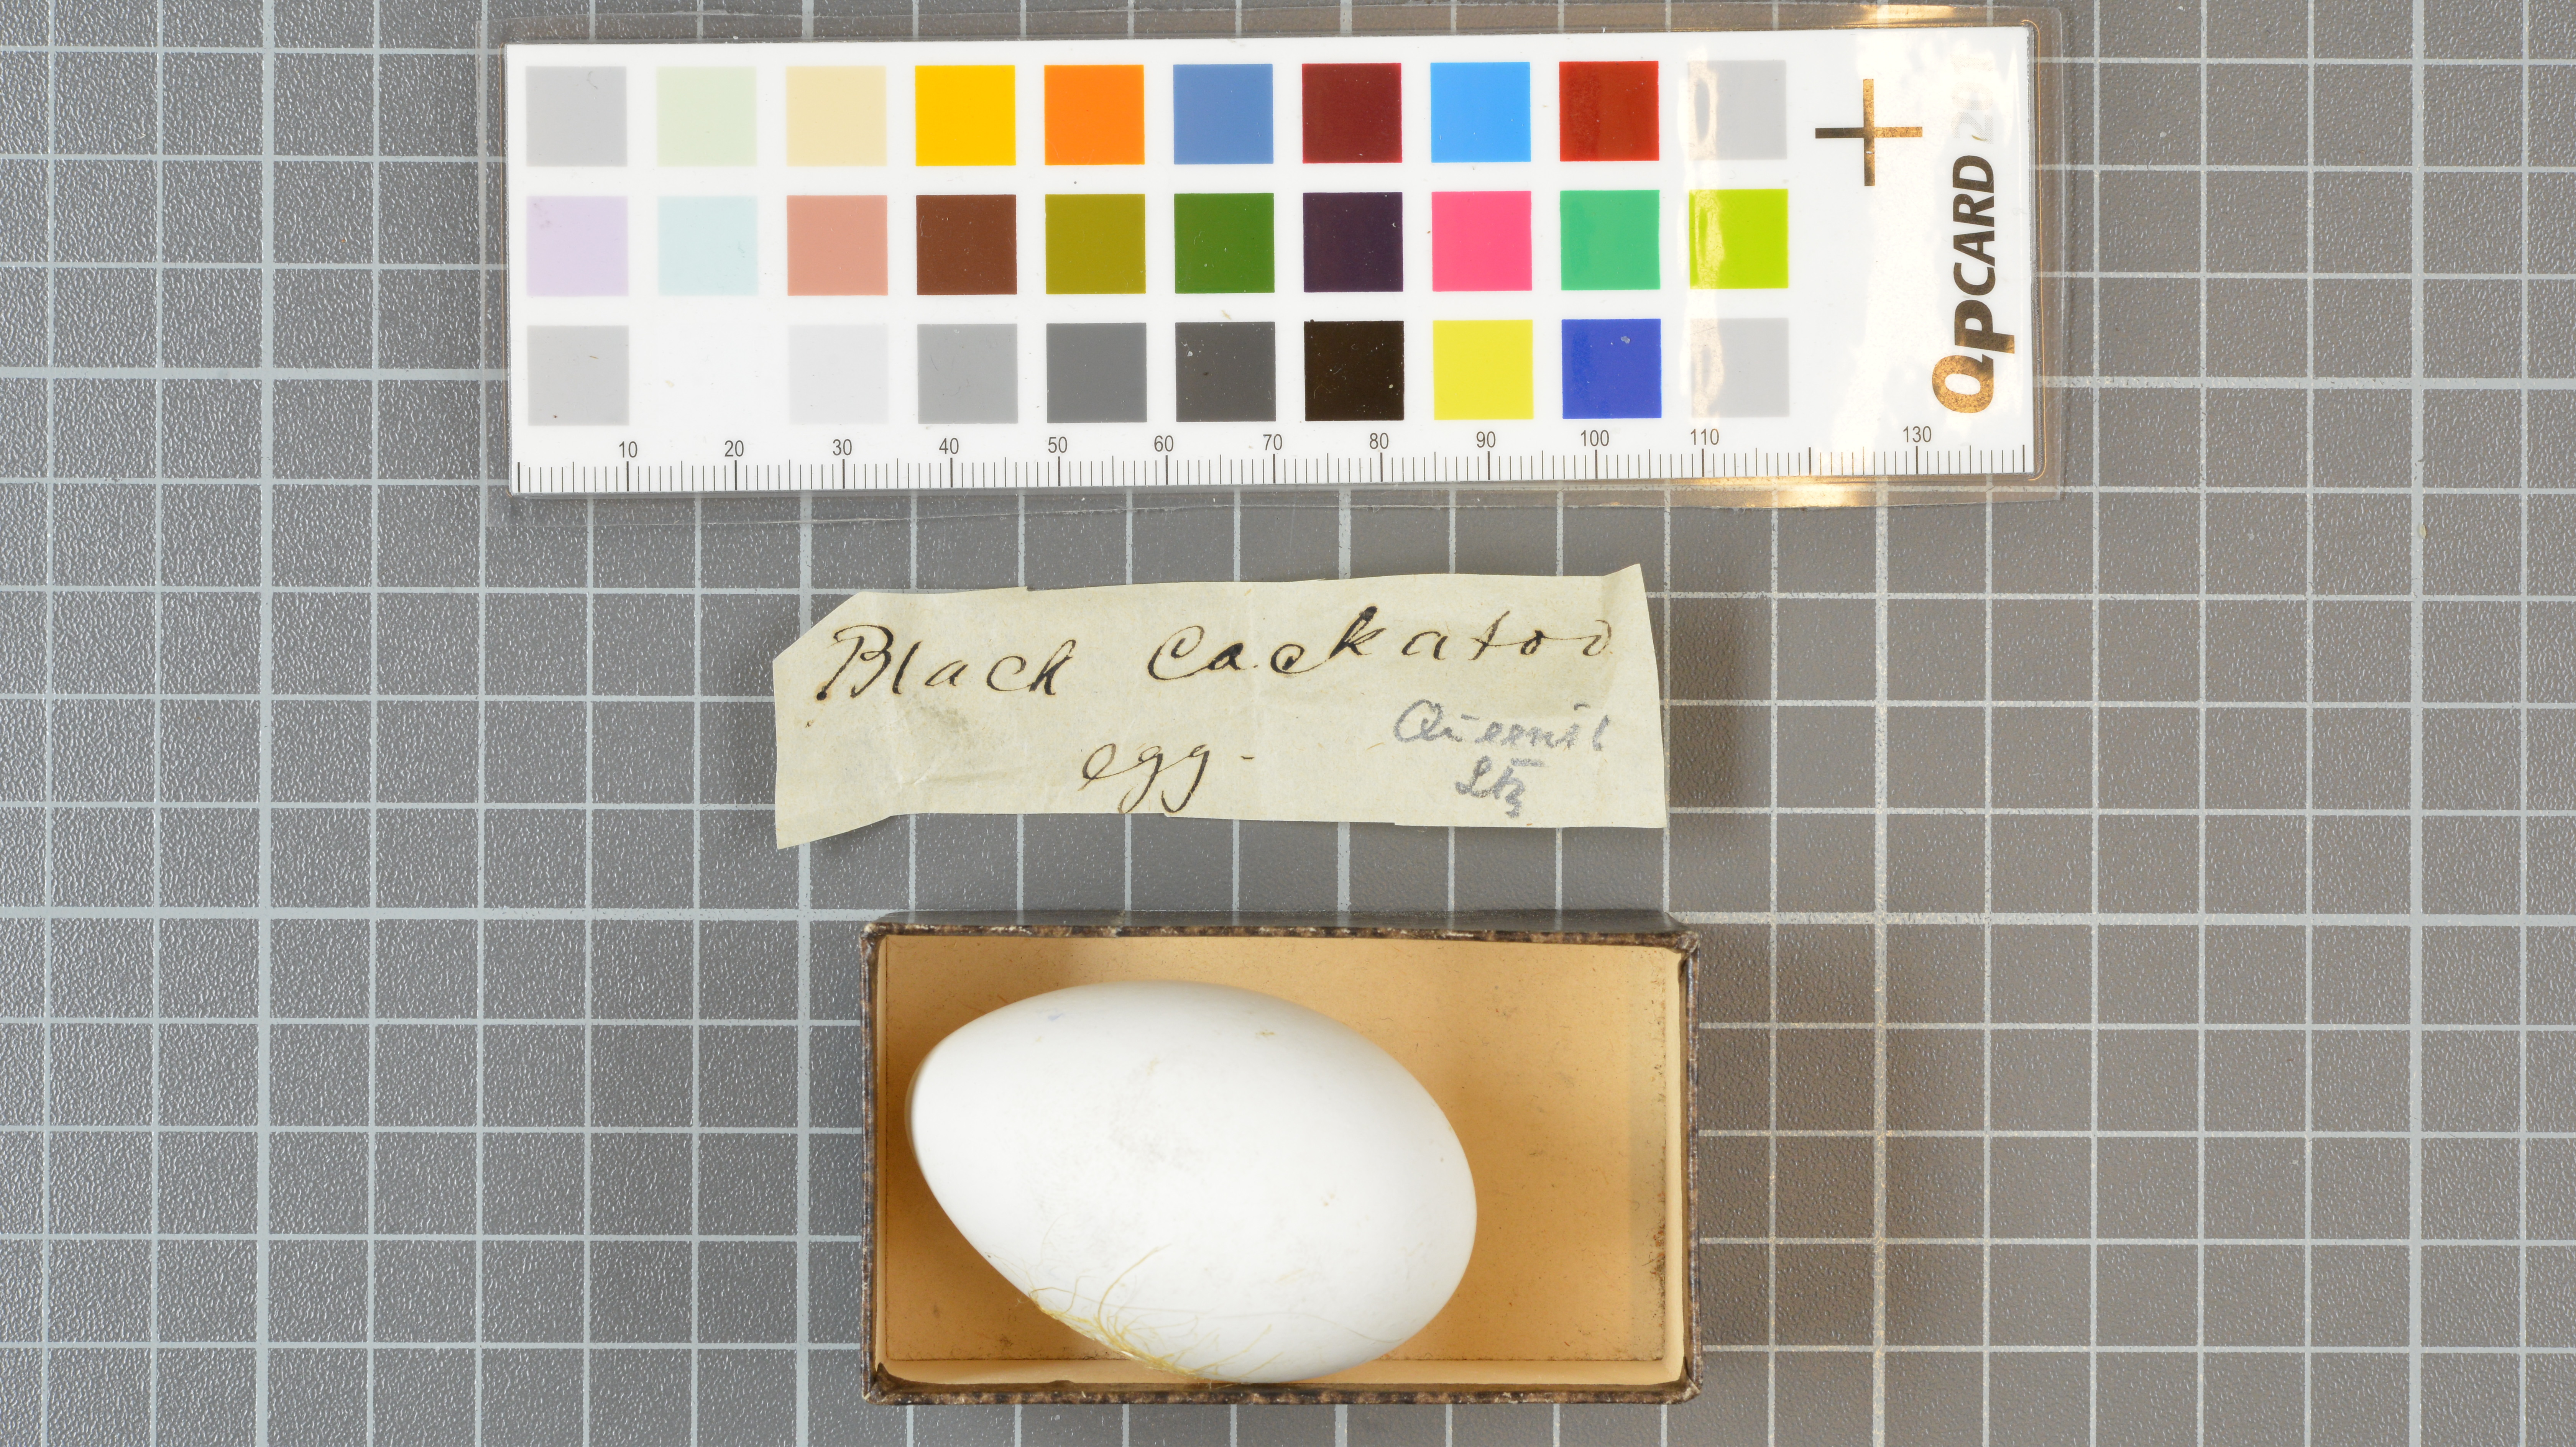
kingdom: Animalia
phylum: Chordata
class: Aves
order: Psittaciformes
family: Psittacidae
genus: Calyptorhynchus
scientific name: Calyptorhynchus banksii
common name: Red-tailed black cockatoo
